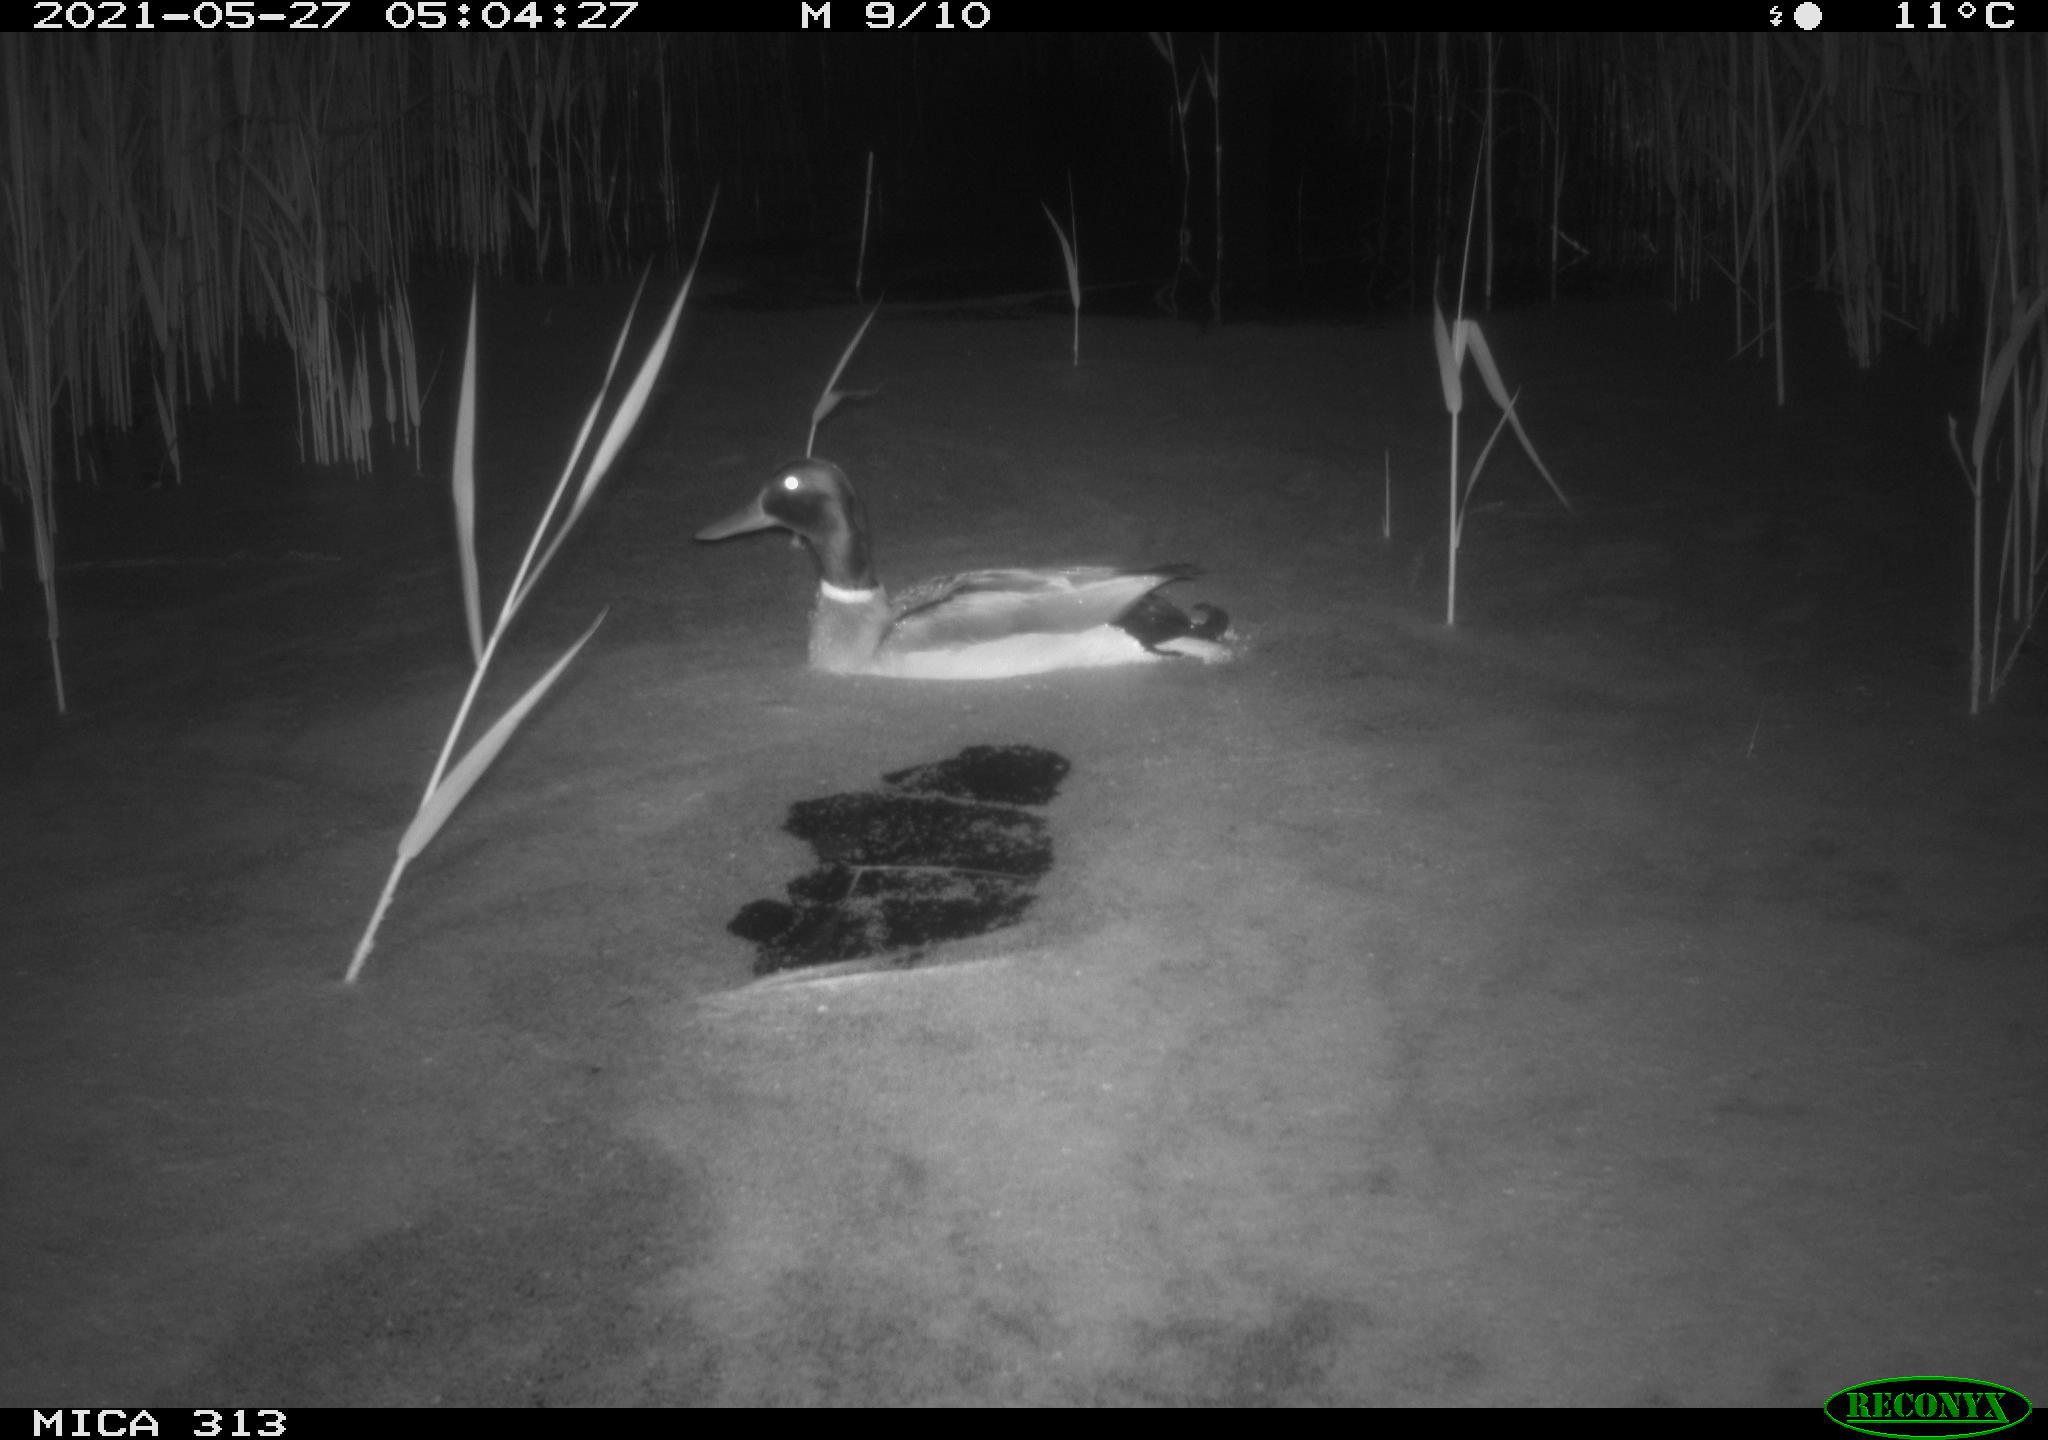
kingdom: Animalia
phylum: Chordata
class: Aves
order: Anseriformes
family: Anatidae
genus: Anas
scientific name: Anas platyrhynchos
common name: Mallard
